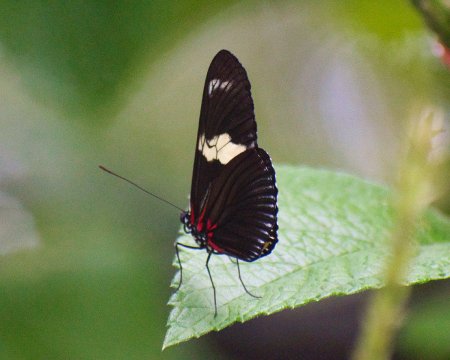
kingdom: Animalia
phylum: Arthropoda
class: Insecta
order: Lepidoptera
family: Nymphalidae
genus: Heliconius
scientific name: Heliconius doris
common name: Doris Longwing
